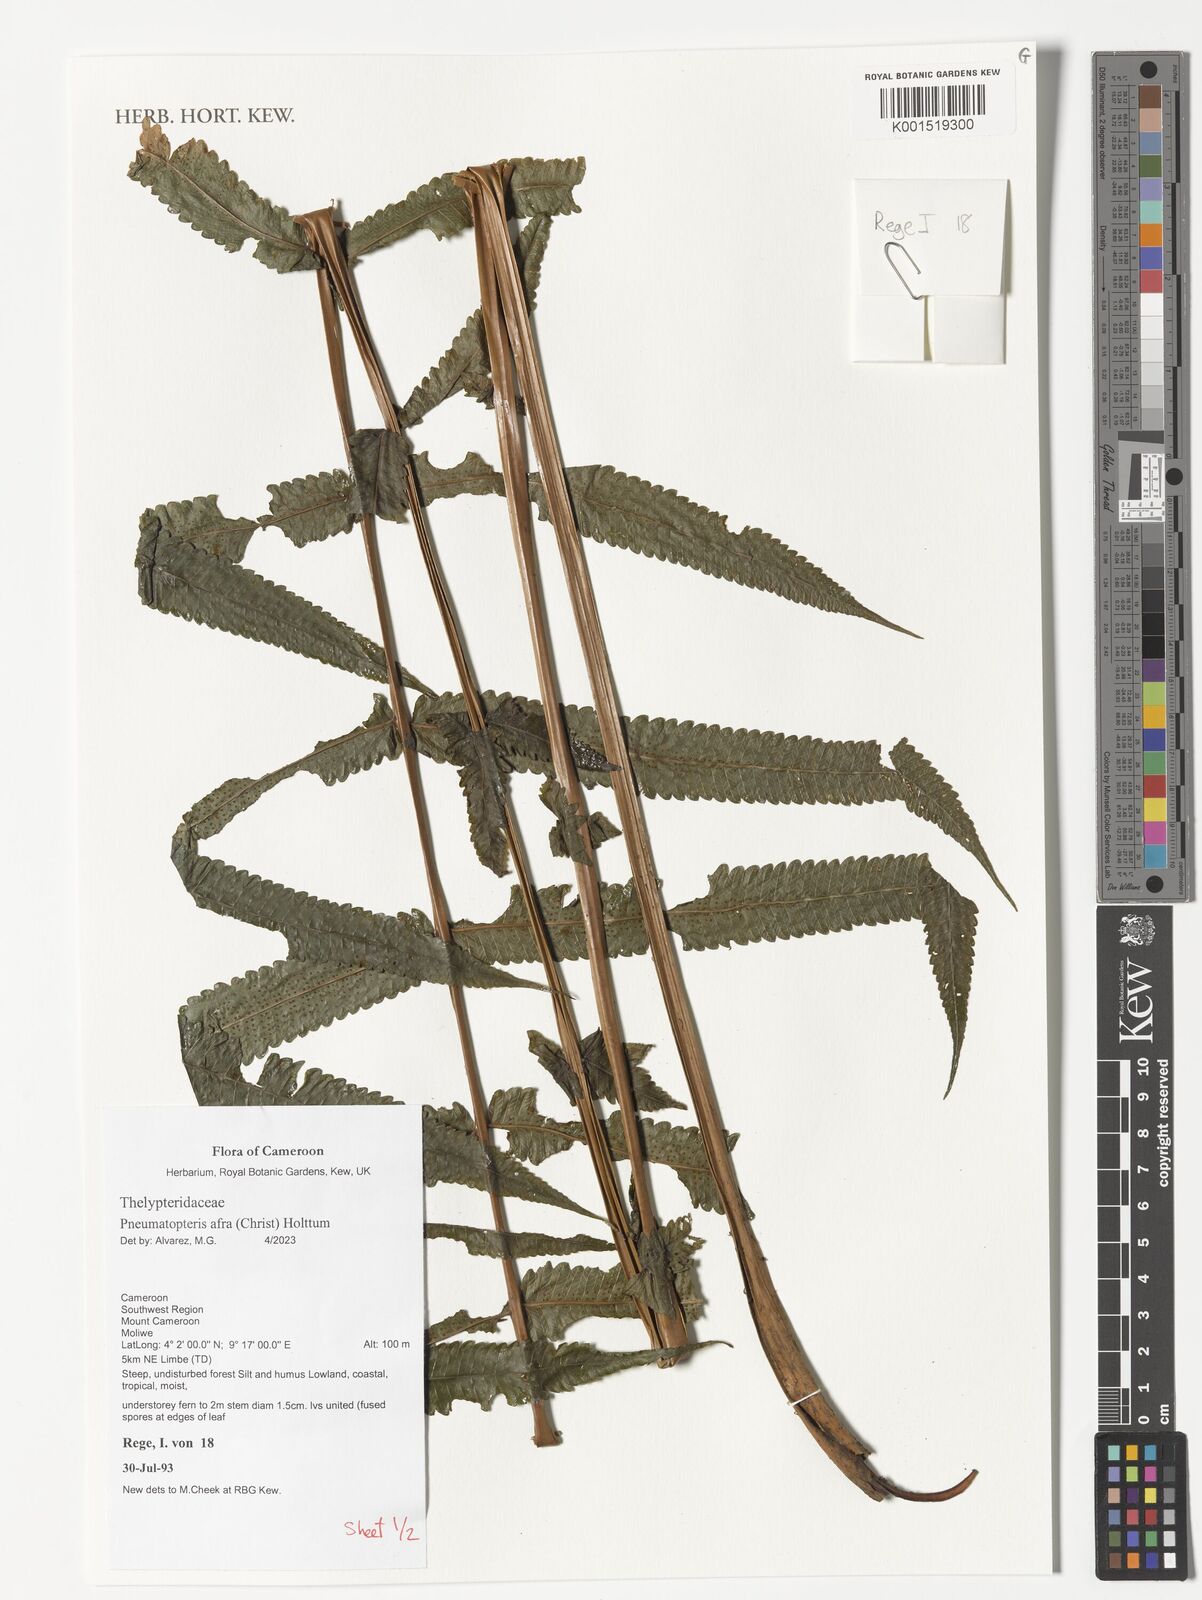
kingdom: Plantae
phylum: Tracheophyta
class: Polypodiopsida
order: Polypodiales
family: Thelypteridaceae
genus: Abacopteris
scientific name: Abacopteris afra
